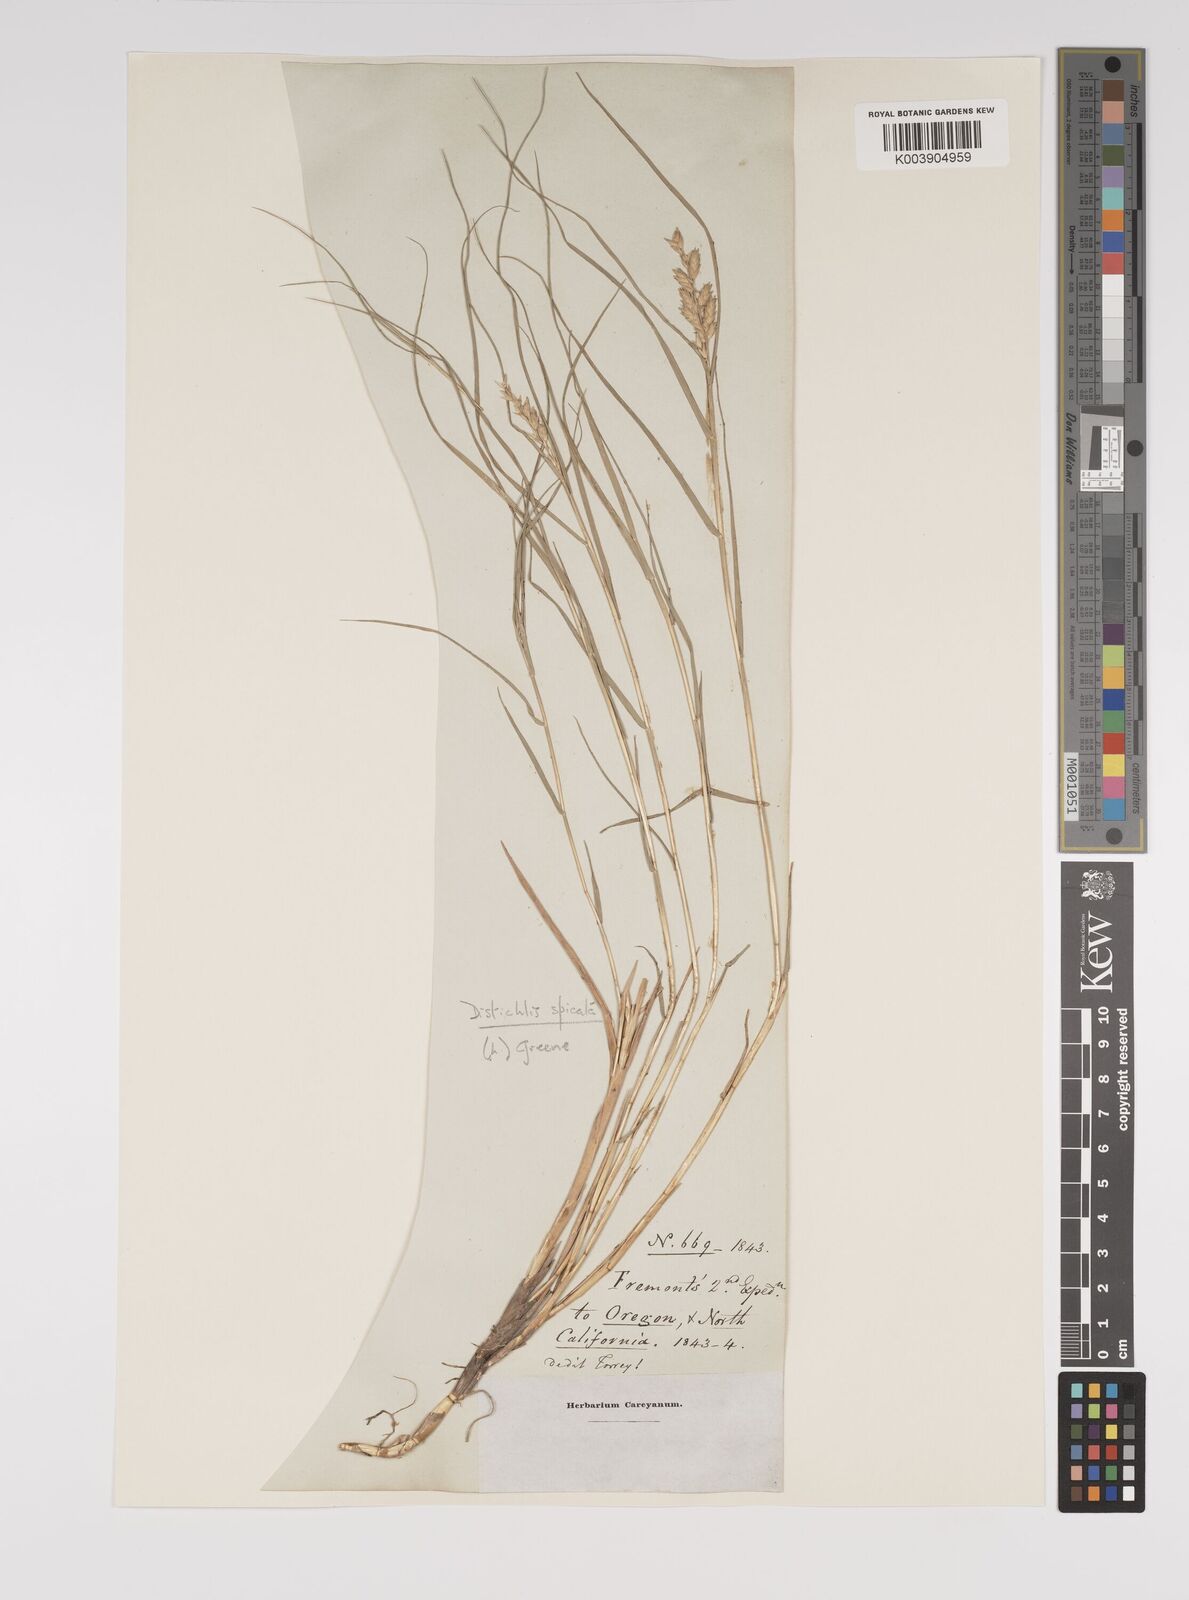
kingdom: Plantae
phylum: Tracheophyta
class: Liliopsida
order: Poales
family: Poaceae
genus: Distichlis
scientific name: Distichlis spicata
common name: Saltgrass
